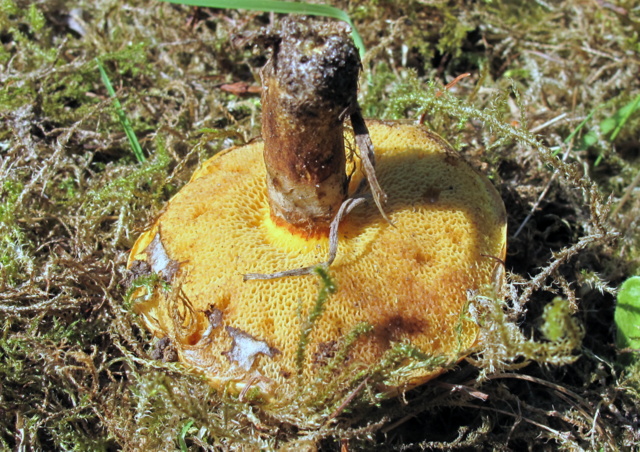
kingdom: Fungi
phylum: Basidiomycota
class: Agaricomycetes
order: Boletales
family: Suillaceae
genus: Suillus
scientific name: Suillus grevillei
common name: lærke-slimrørhat
